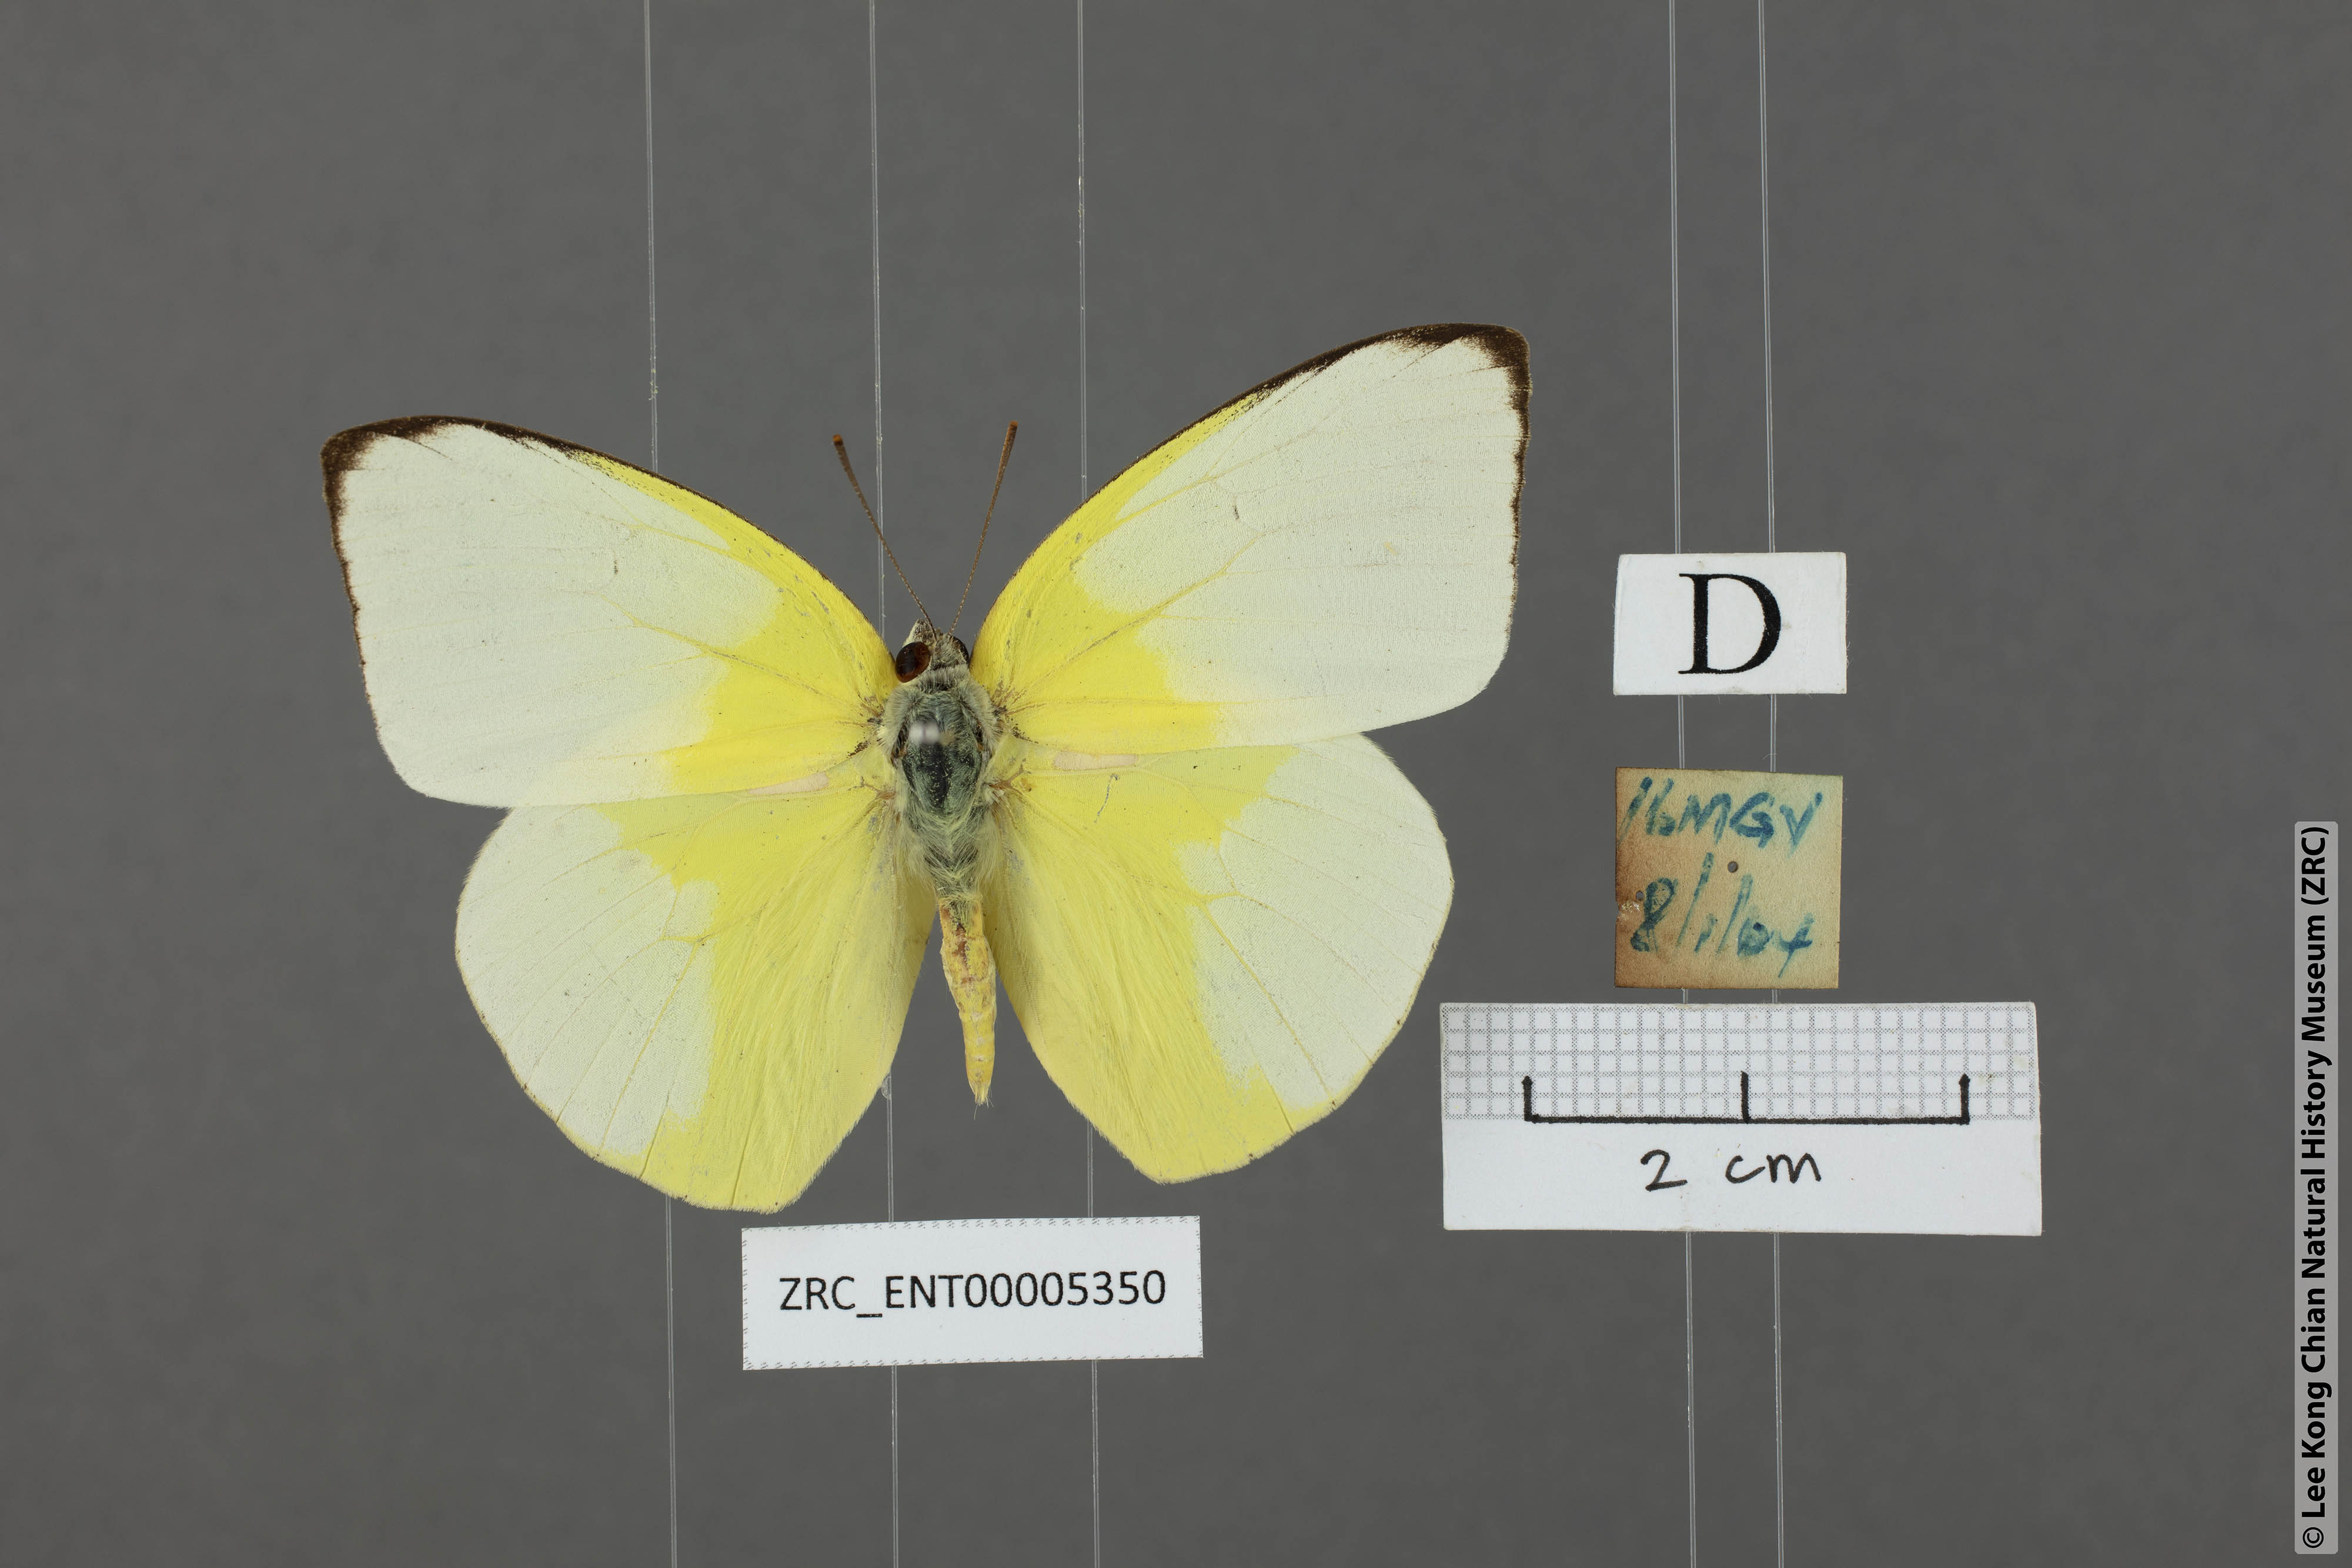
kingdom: Animalia
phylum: Arthropoda
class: Insecta
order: Lepidoptera
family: Pieridae
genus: Catopsilia
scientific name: Catopsilia pomona
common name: Common emigrant
